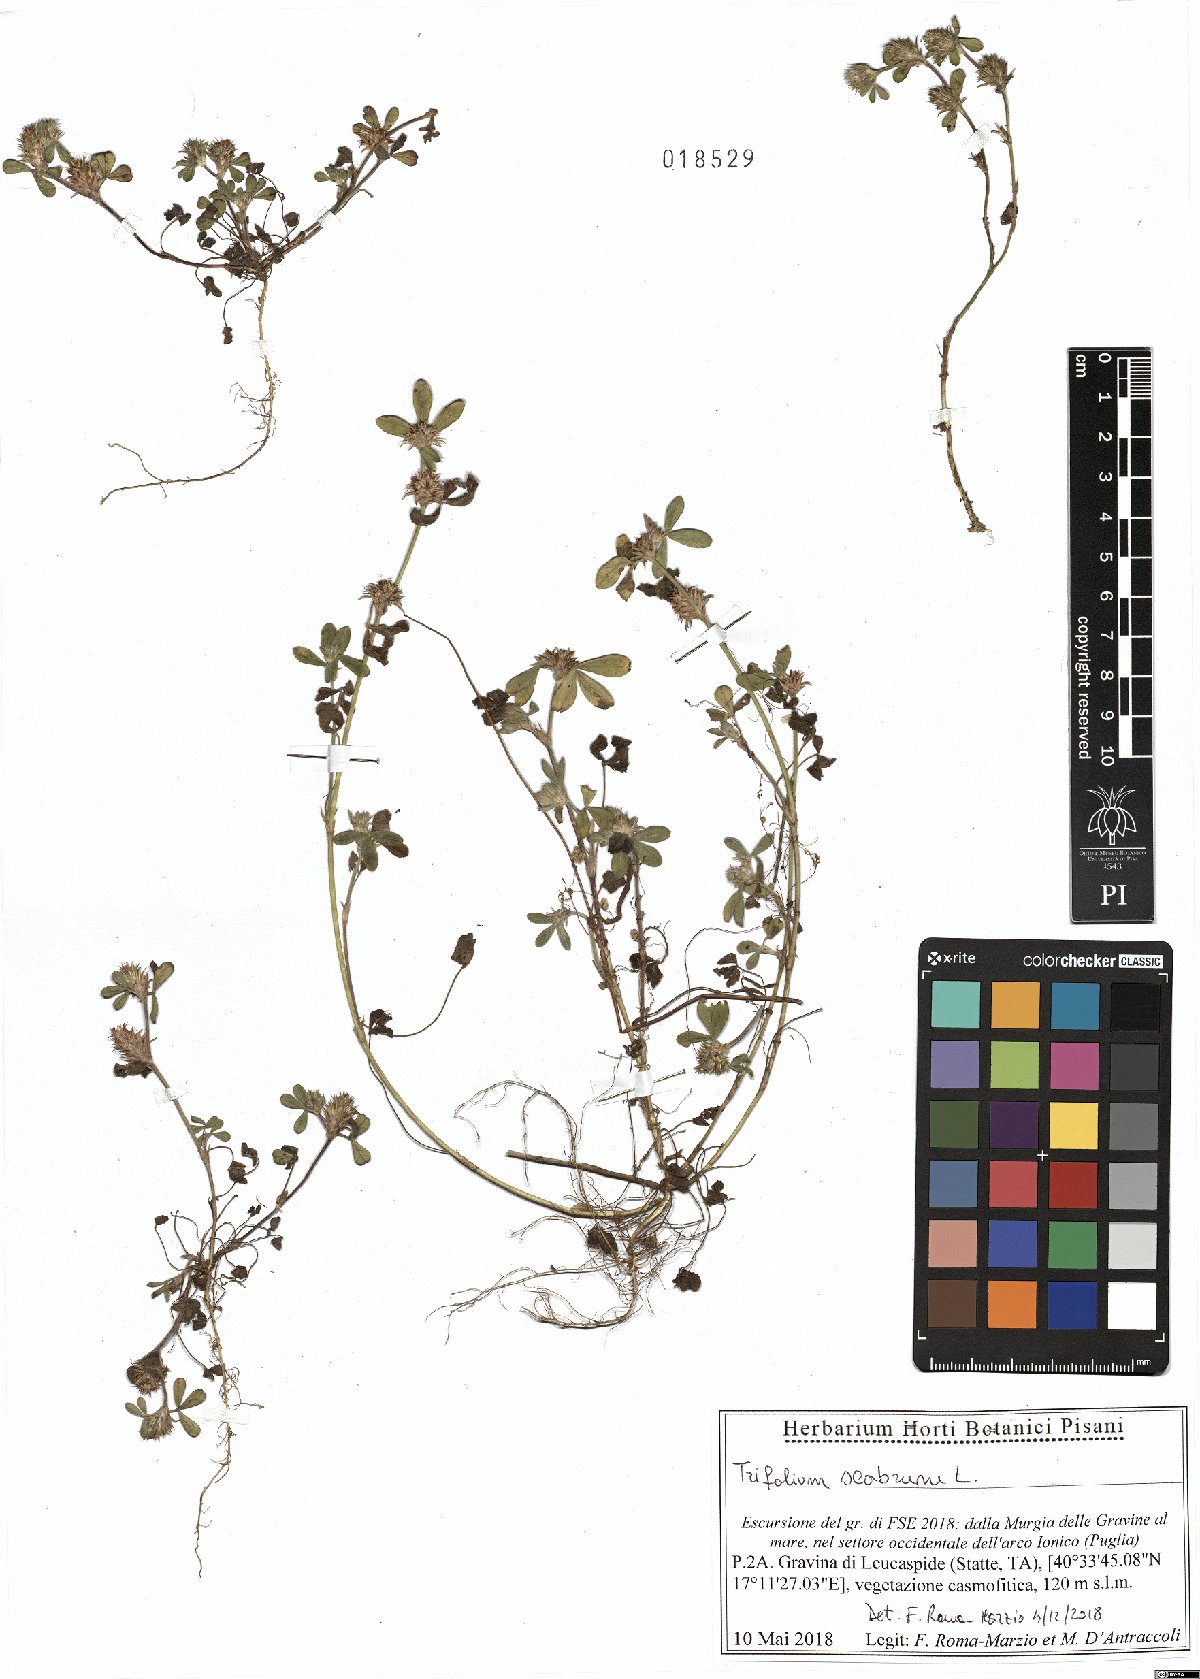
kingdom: Plantae
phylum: Tracheophyta
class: Magnoliopsida
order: Fabales
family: Fabaceae
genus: Trifolium
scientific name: Trifolium scabrum
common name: Rough clover
